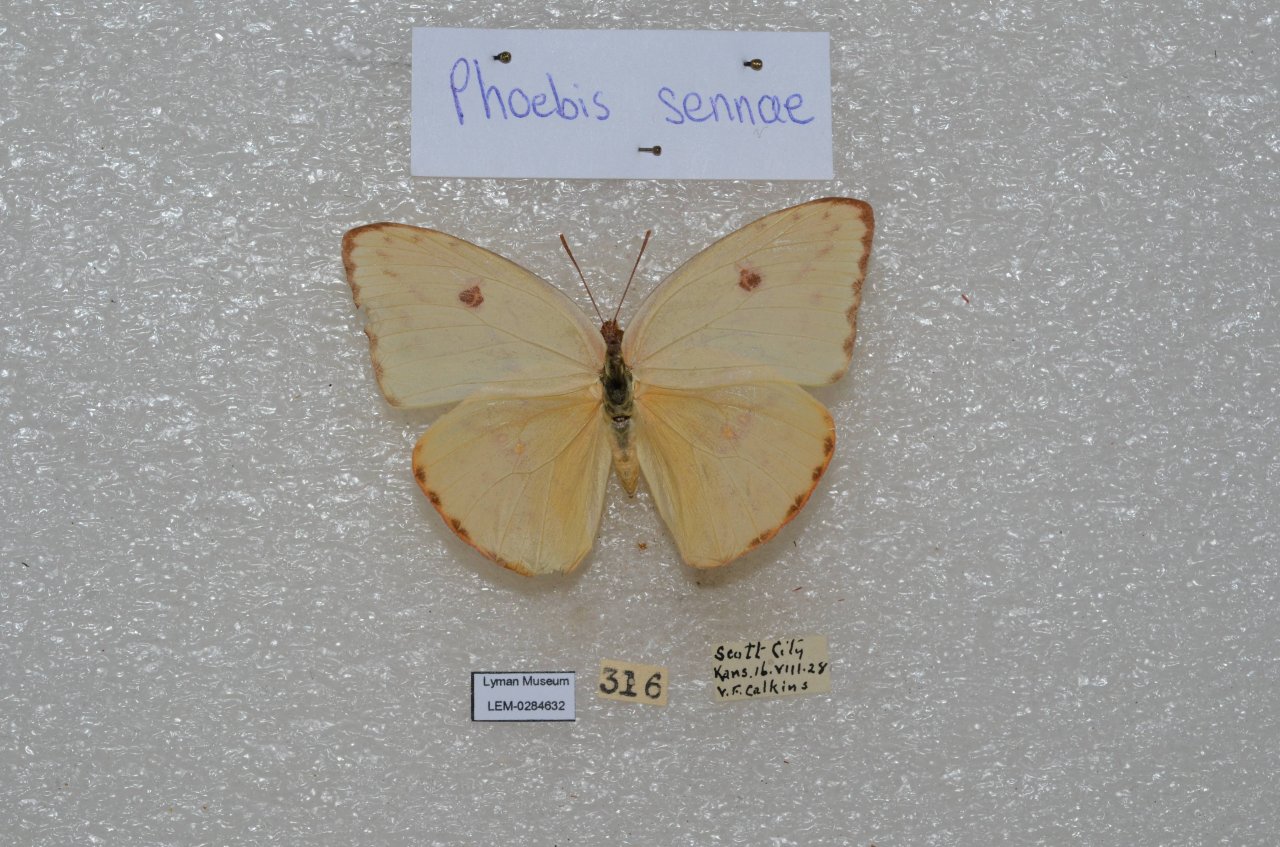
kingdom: Animalia
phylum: Arthropoda
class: Insecta
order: Lepidoptera
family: Pieridae
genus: Phoebis
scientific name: Phoebis sennae
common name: Cloudless Sulphur
